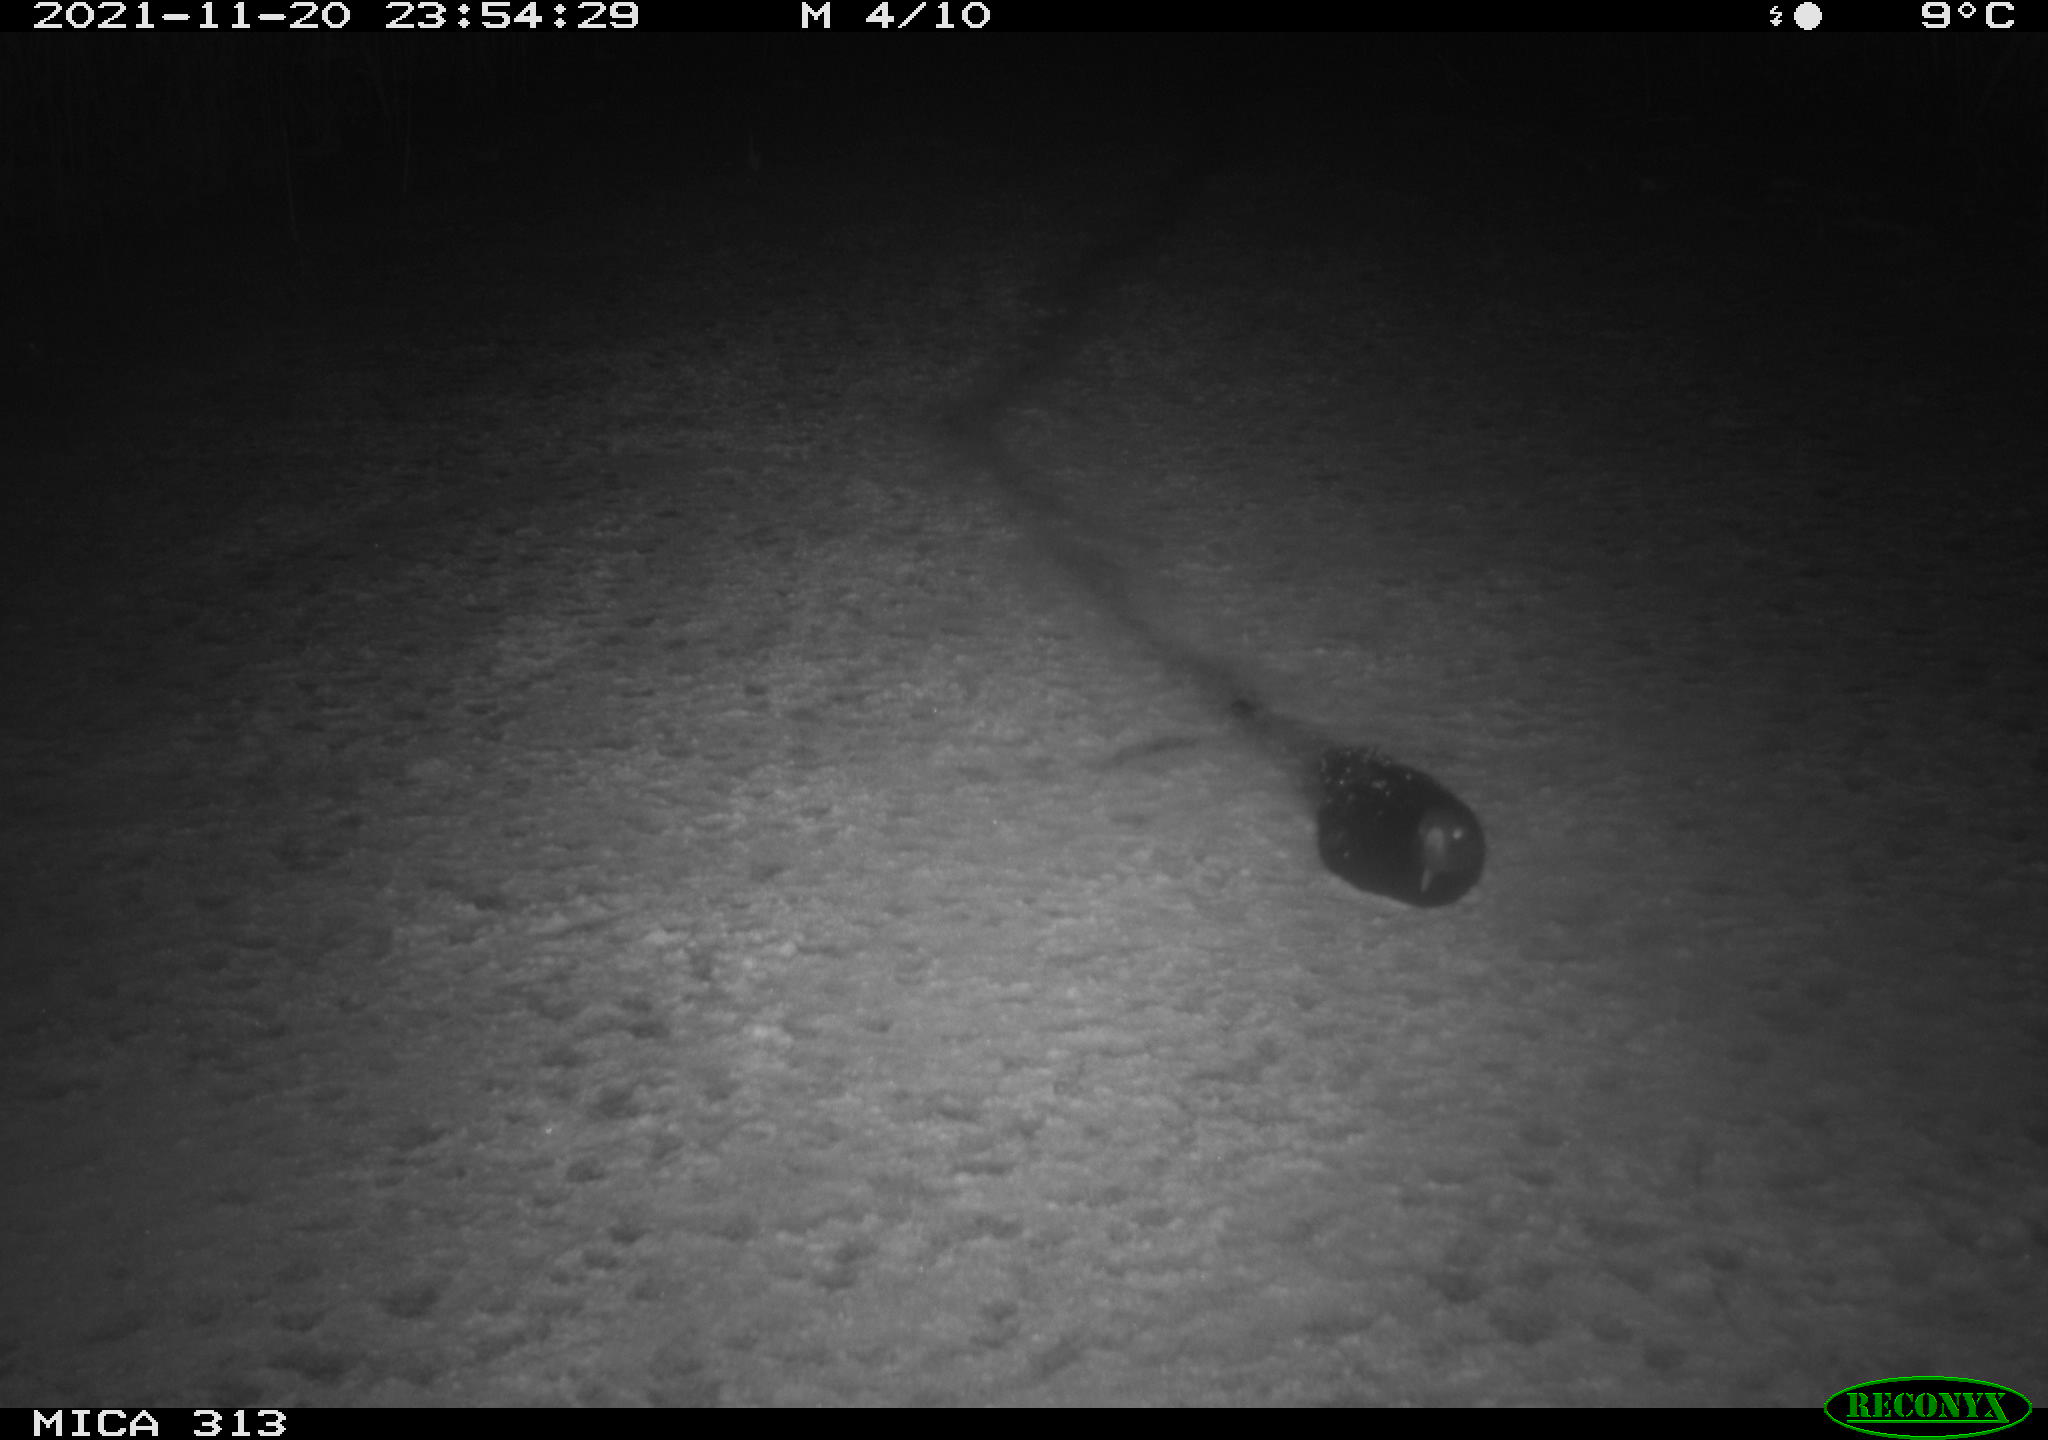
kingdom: Animalia
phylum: Chordata
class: Aves
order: Gruiformes
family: Rallidae
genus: Gallinula
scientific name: Gallinula chloropus
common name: Common moorhen
